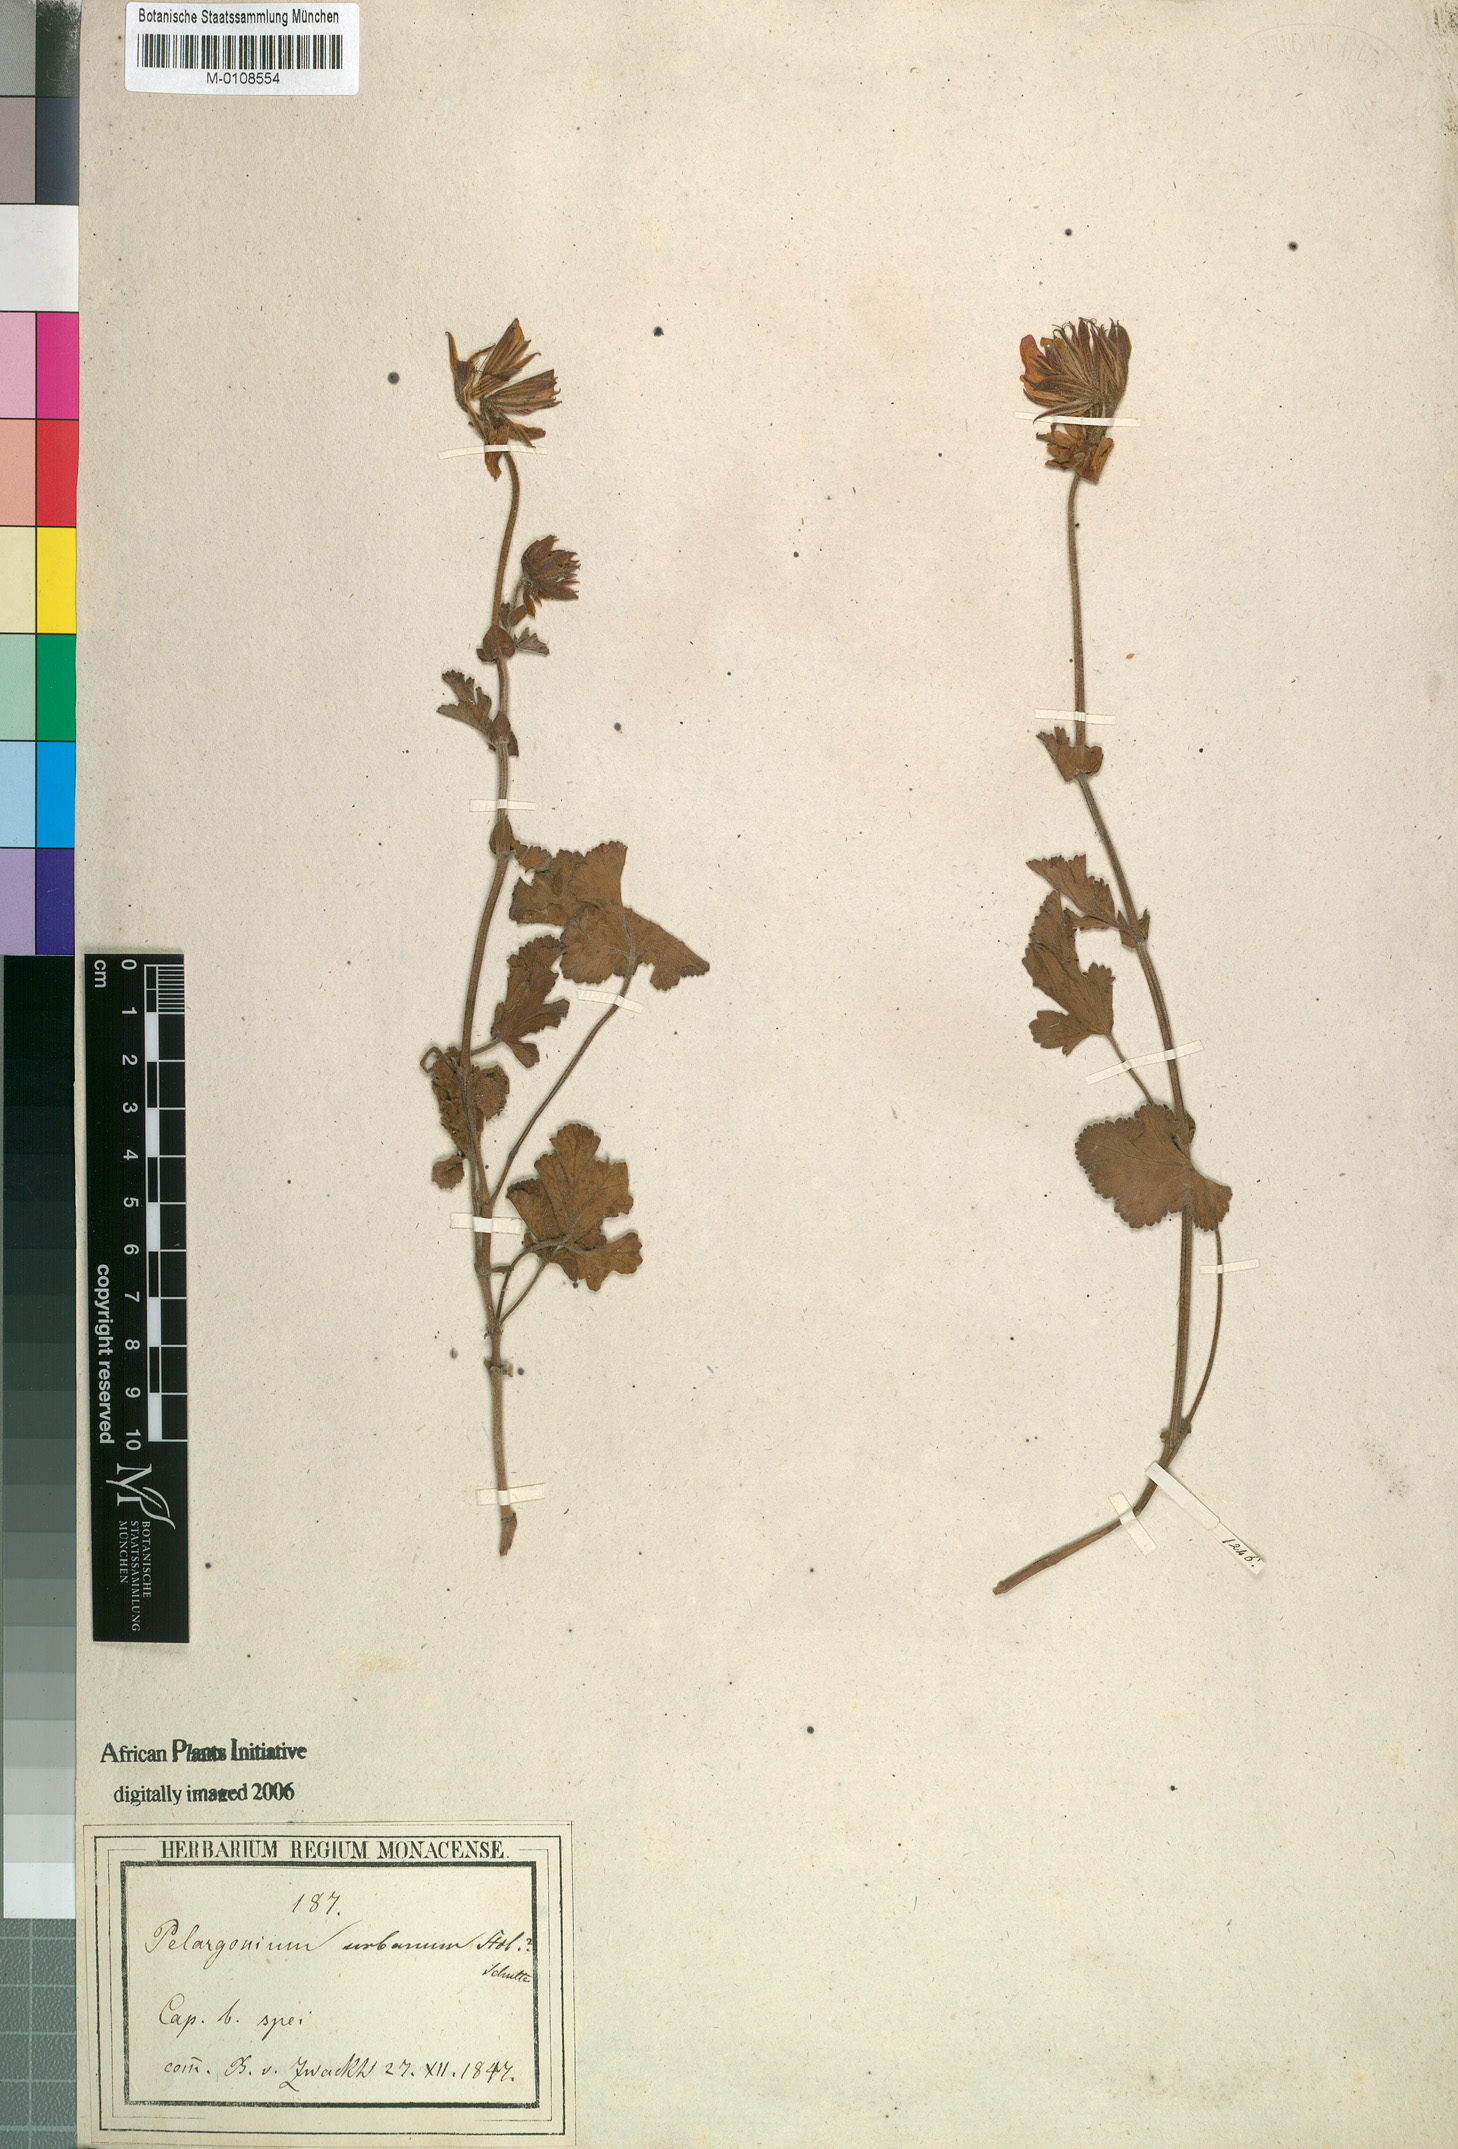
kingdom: Plantae
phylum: Tracheophyta
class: Magnoliopsida
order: Geraniales
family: Geraniaceae
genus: Pelargonium
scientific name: Pelargonium suburbanum
